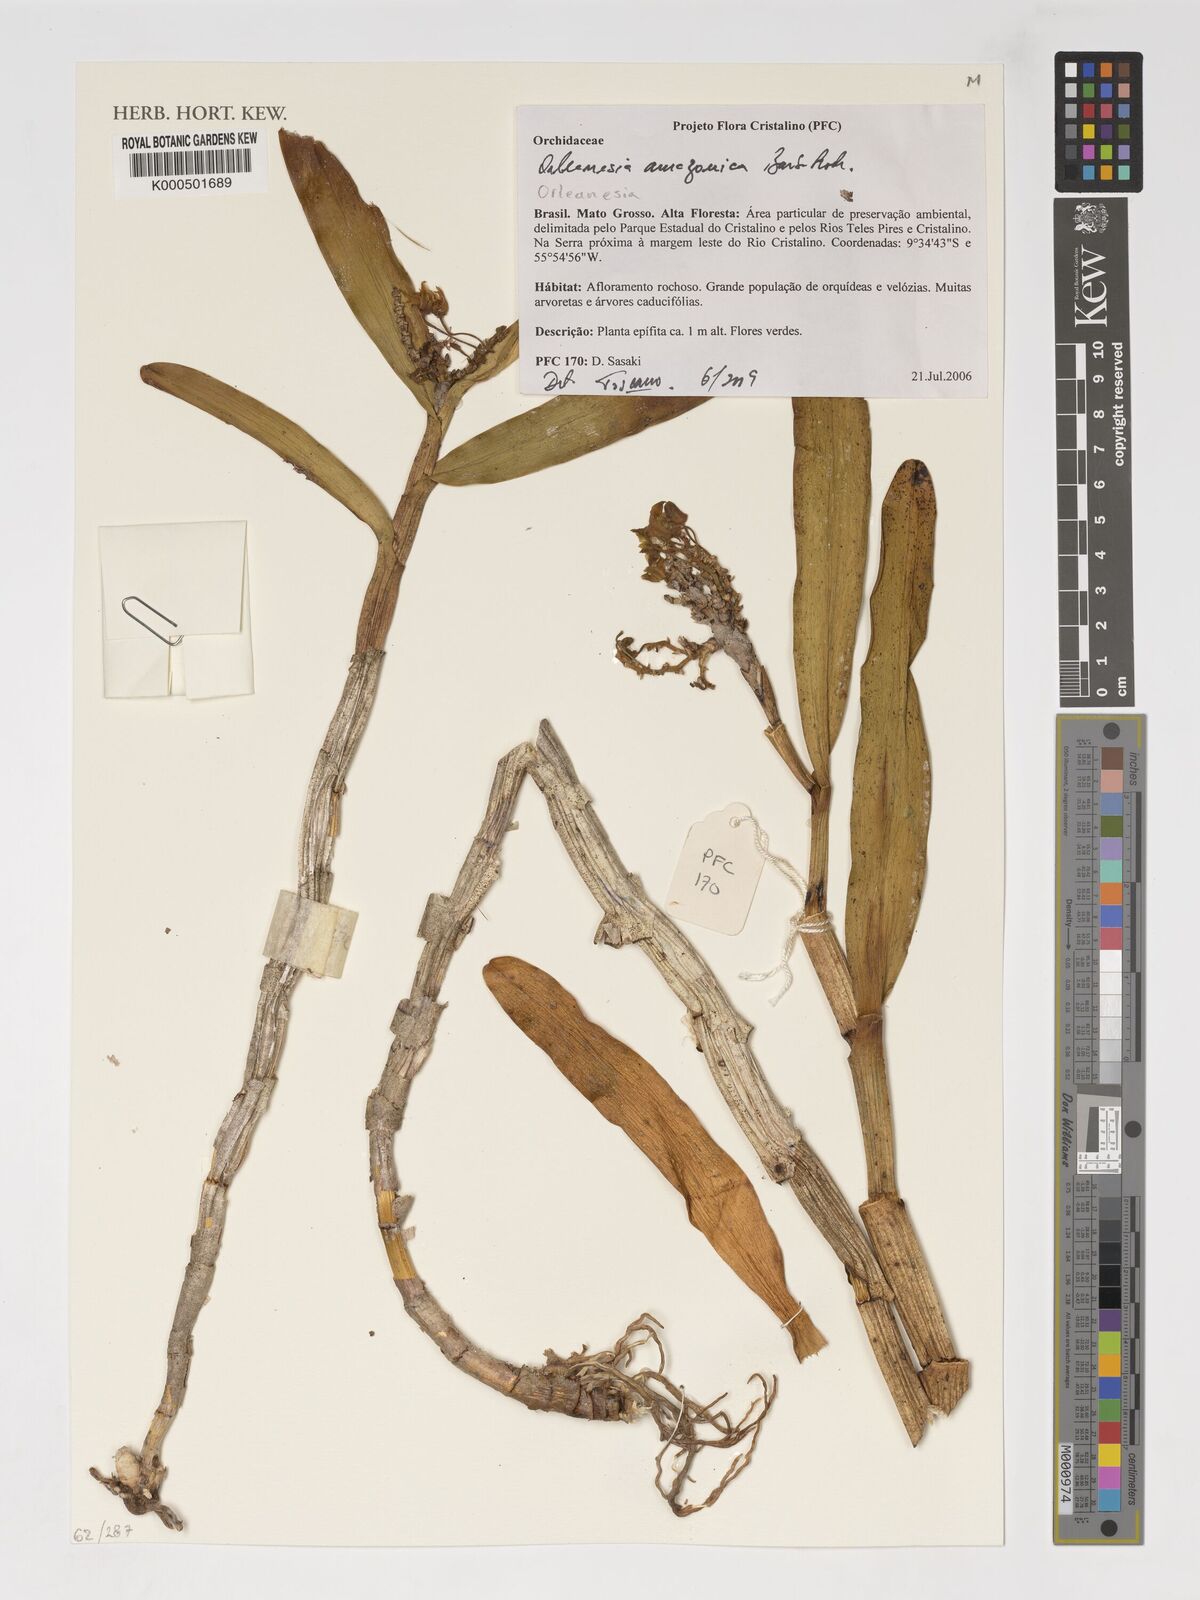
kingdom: Plantae
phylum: Tracheophyta
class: Liliopsida
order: Asparagales
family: Orchidaceae
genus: Orleanesia
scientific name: Orleanesia amazonica
